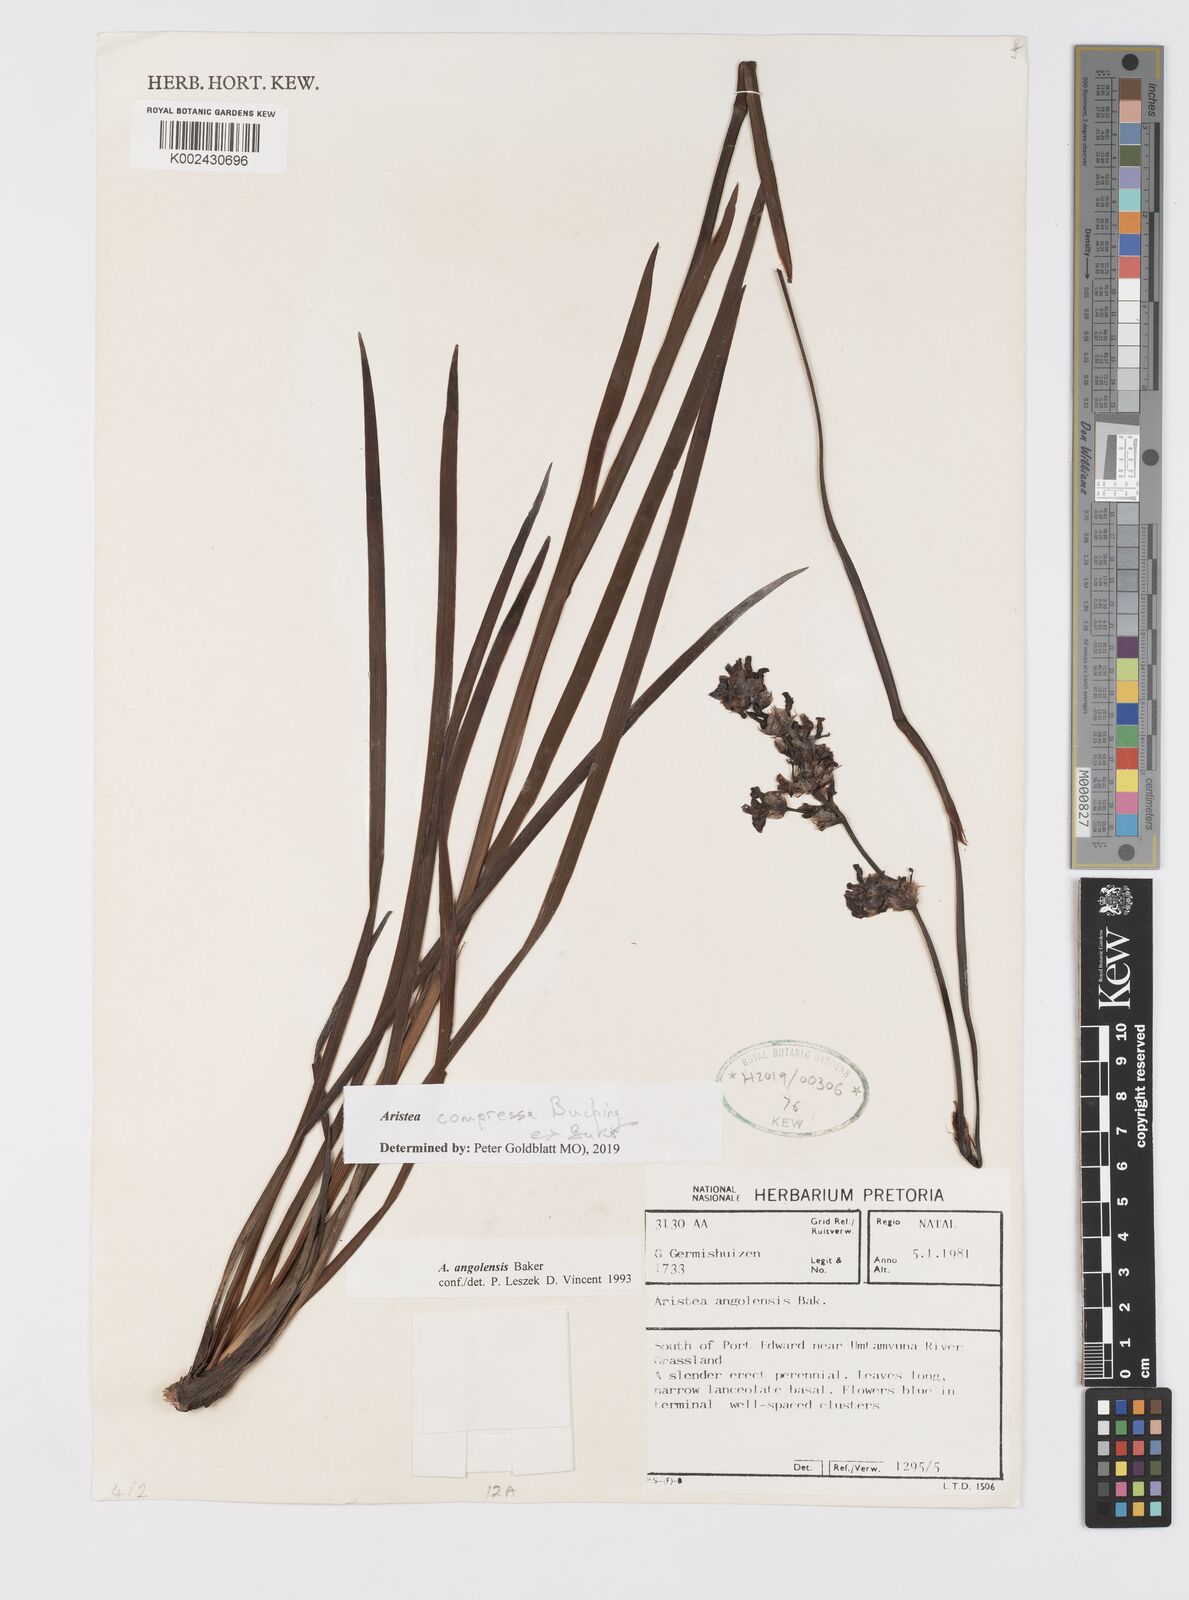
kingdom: Plantae
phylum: Tracheophyta
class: Liliopsida
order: Asparagales
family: Iridaceae
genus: Aristea
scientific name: Aristea compressa
